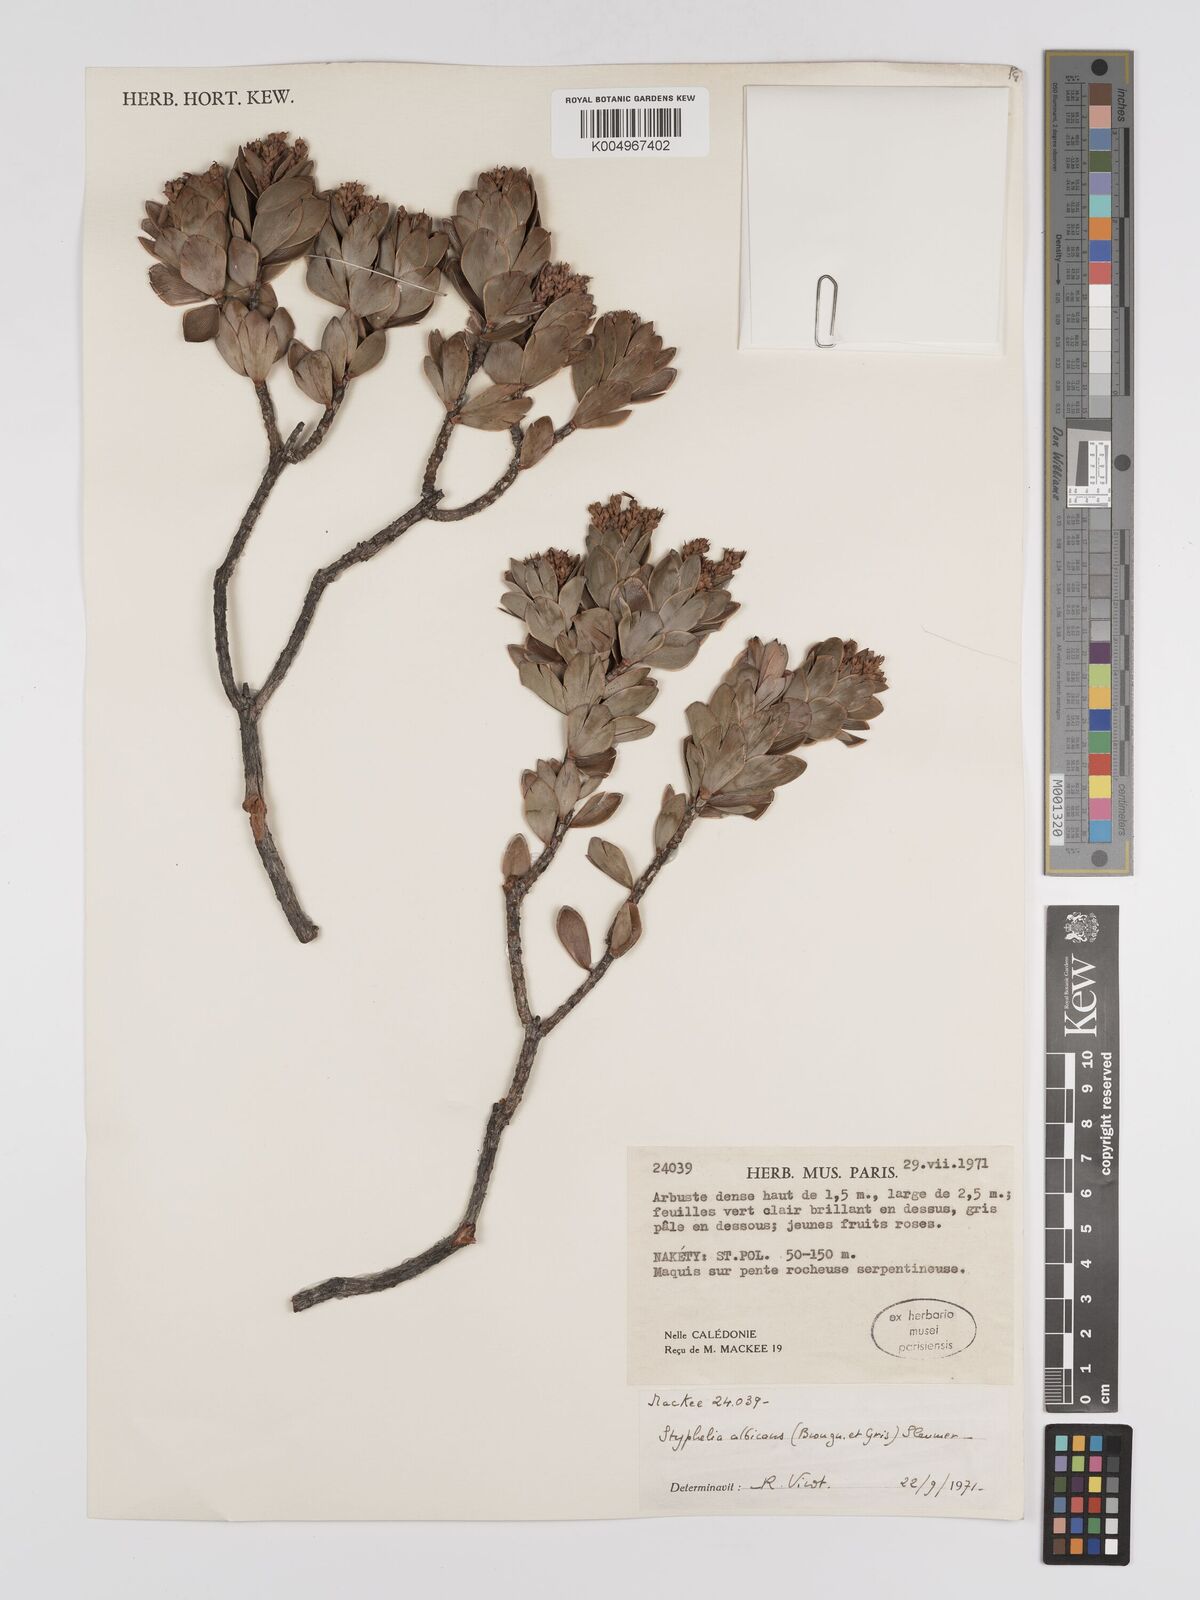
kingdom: Plantae
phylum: Tracheophyta
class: Magnoliopsida
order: Ericales
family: Ericaceae
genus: Cyathopsis
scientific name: Cyathopsis albicans
